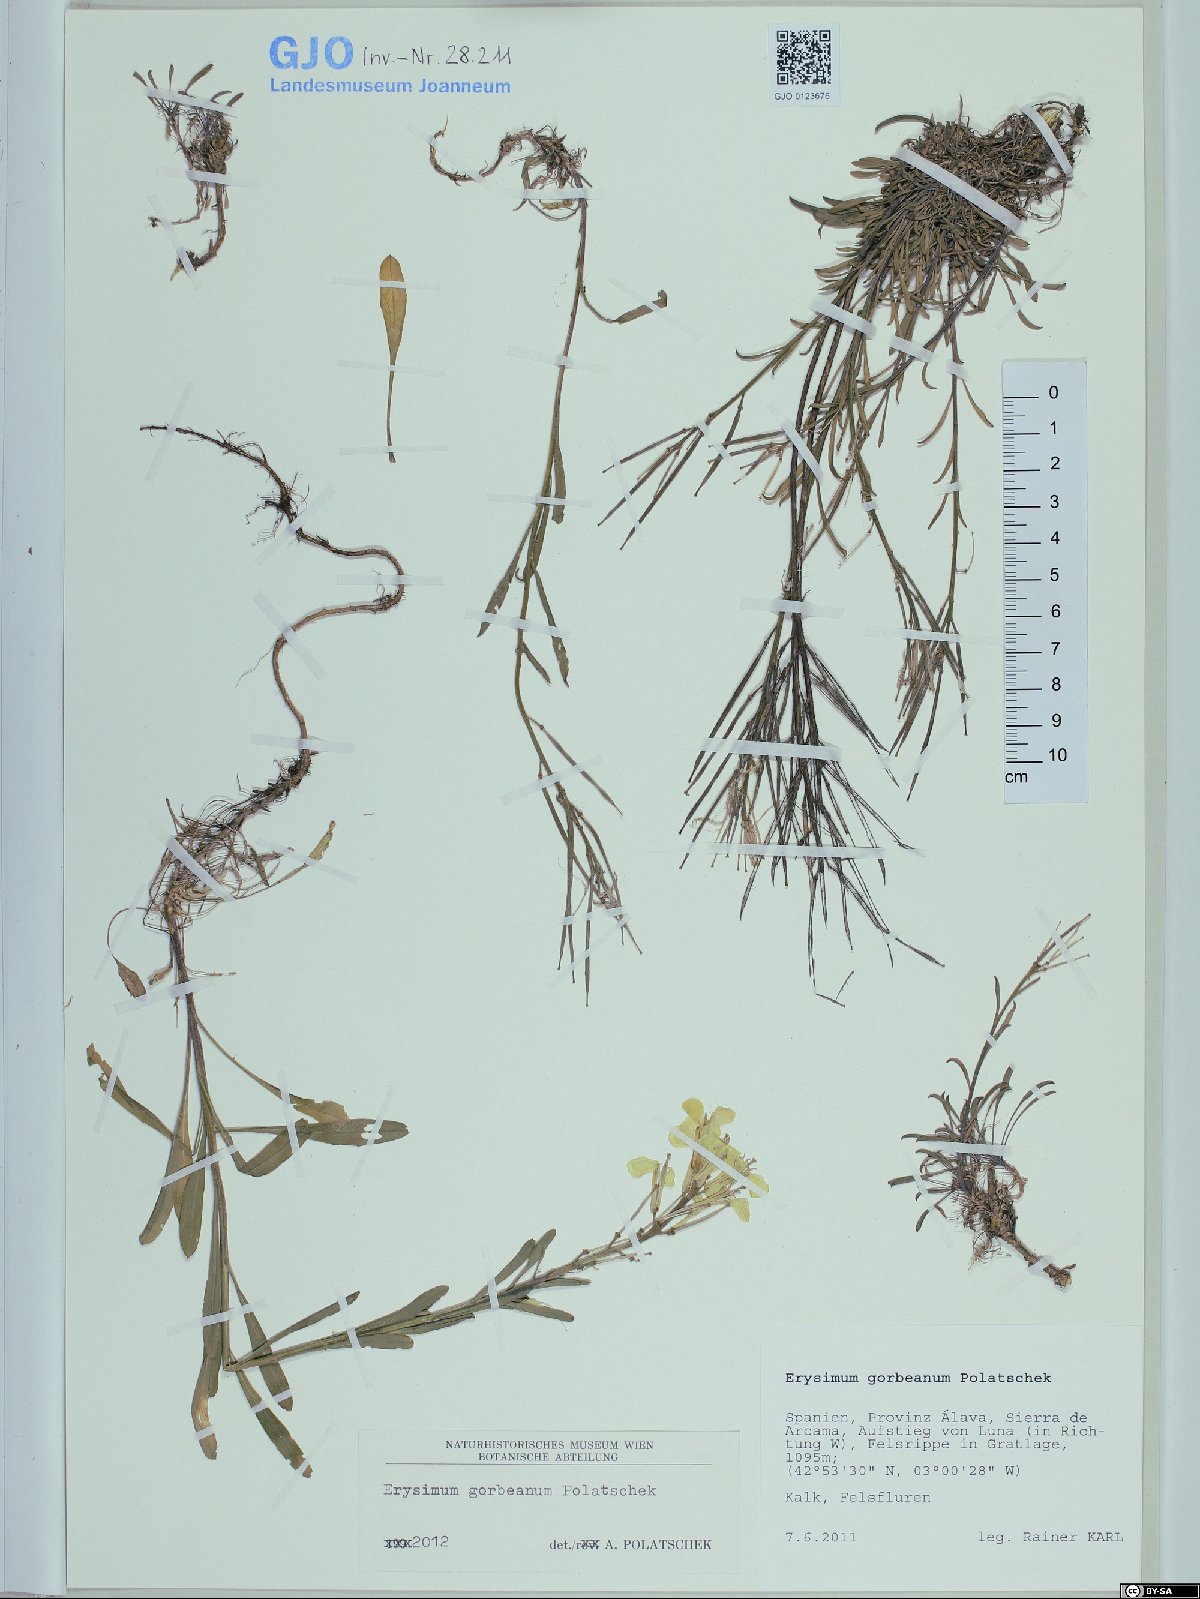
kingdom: Plantae
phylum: Tracheophyta
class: Magnoliopsida
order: Brassicales
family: Brassicaceae
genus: Erysimum
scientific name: Erysimum duriaei
